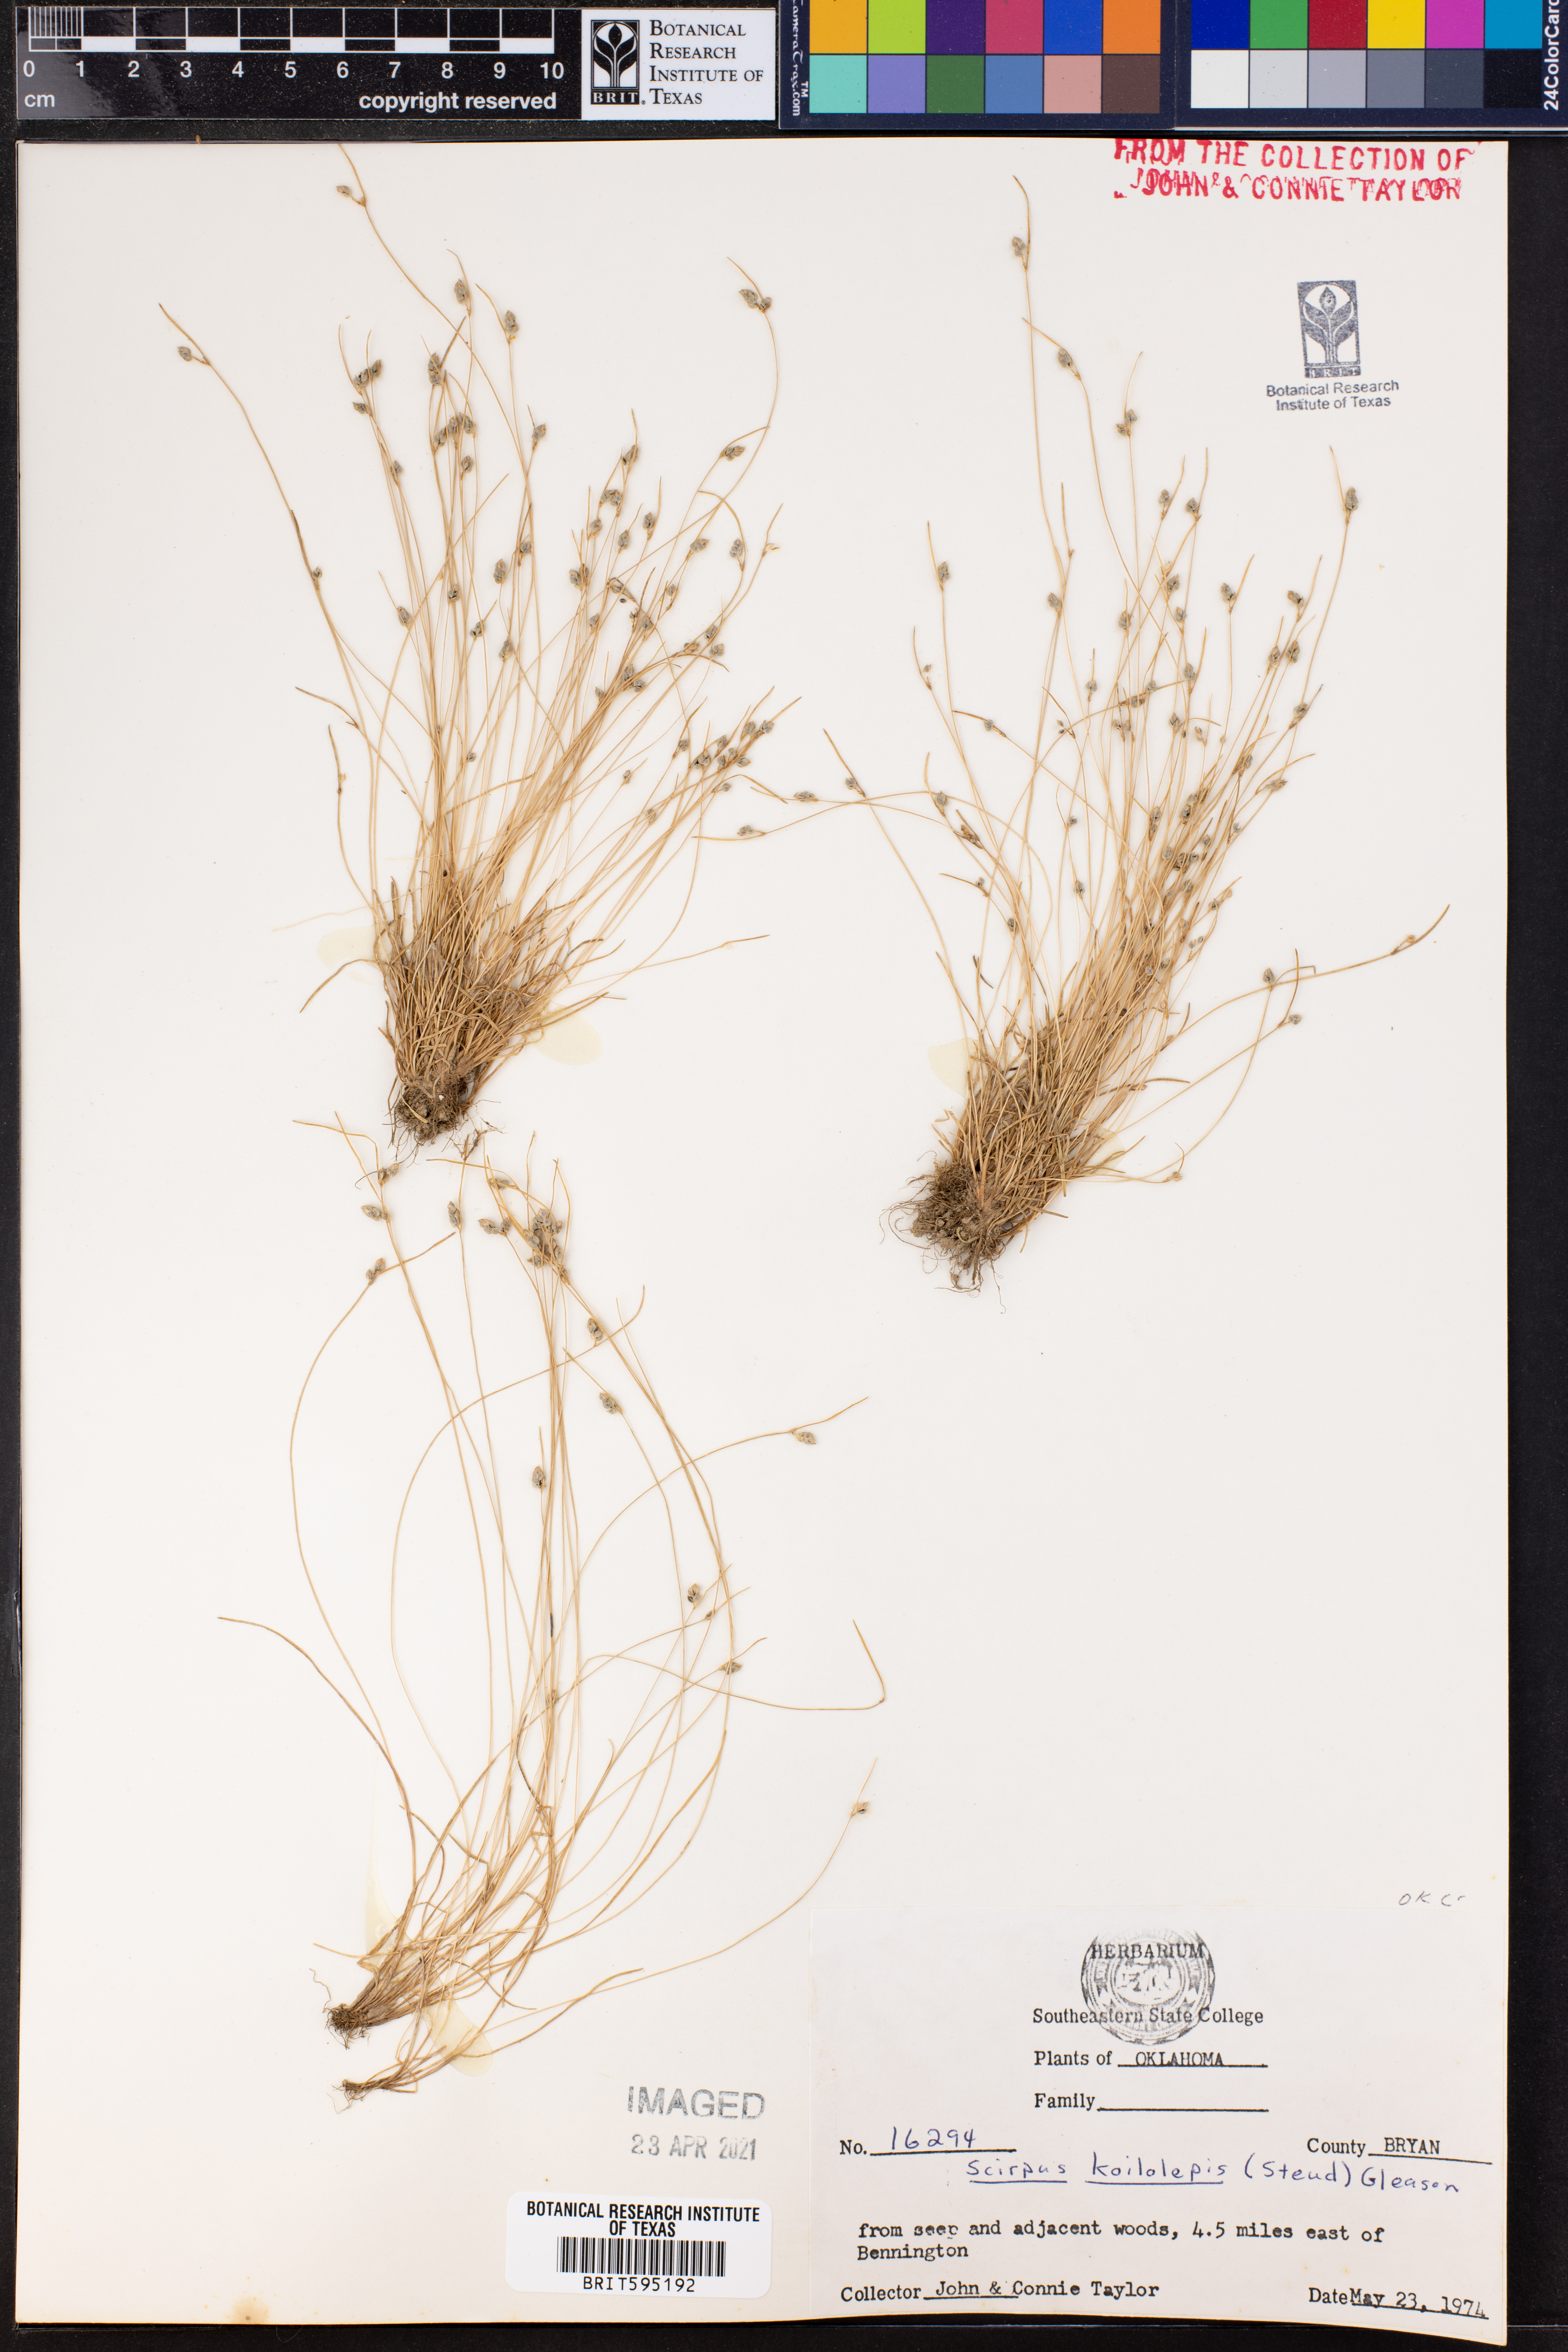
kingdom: Plantae
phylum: Tracheophyta
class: Liliopsida
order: Poales
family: Cyperaceae
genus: Isolepis
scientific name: Isolepis carinata
